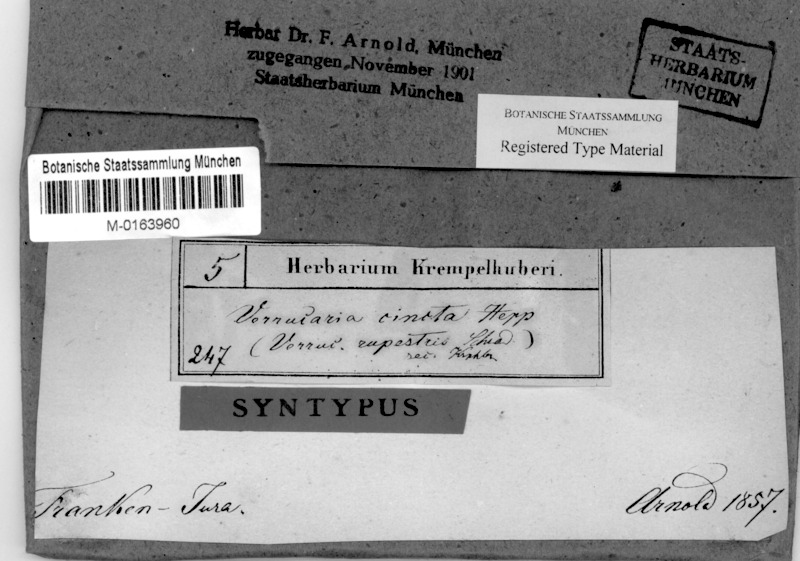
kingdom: Fungi
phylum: Ascomycota
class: Eurotiomycetes
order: Verrucariales
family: Verrucariaceae
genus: Verrucaria
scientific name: Verrucaria cincta
